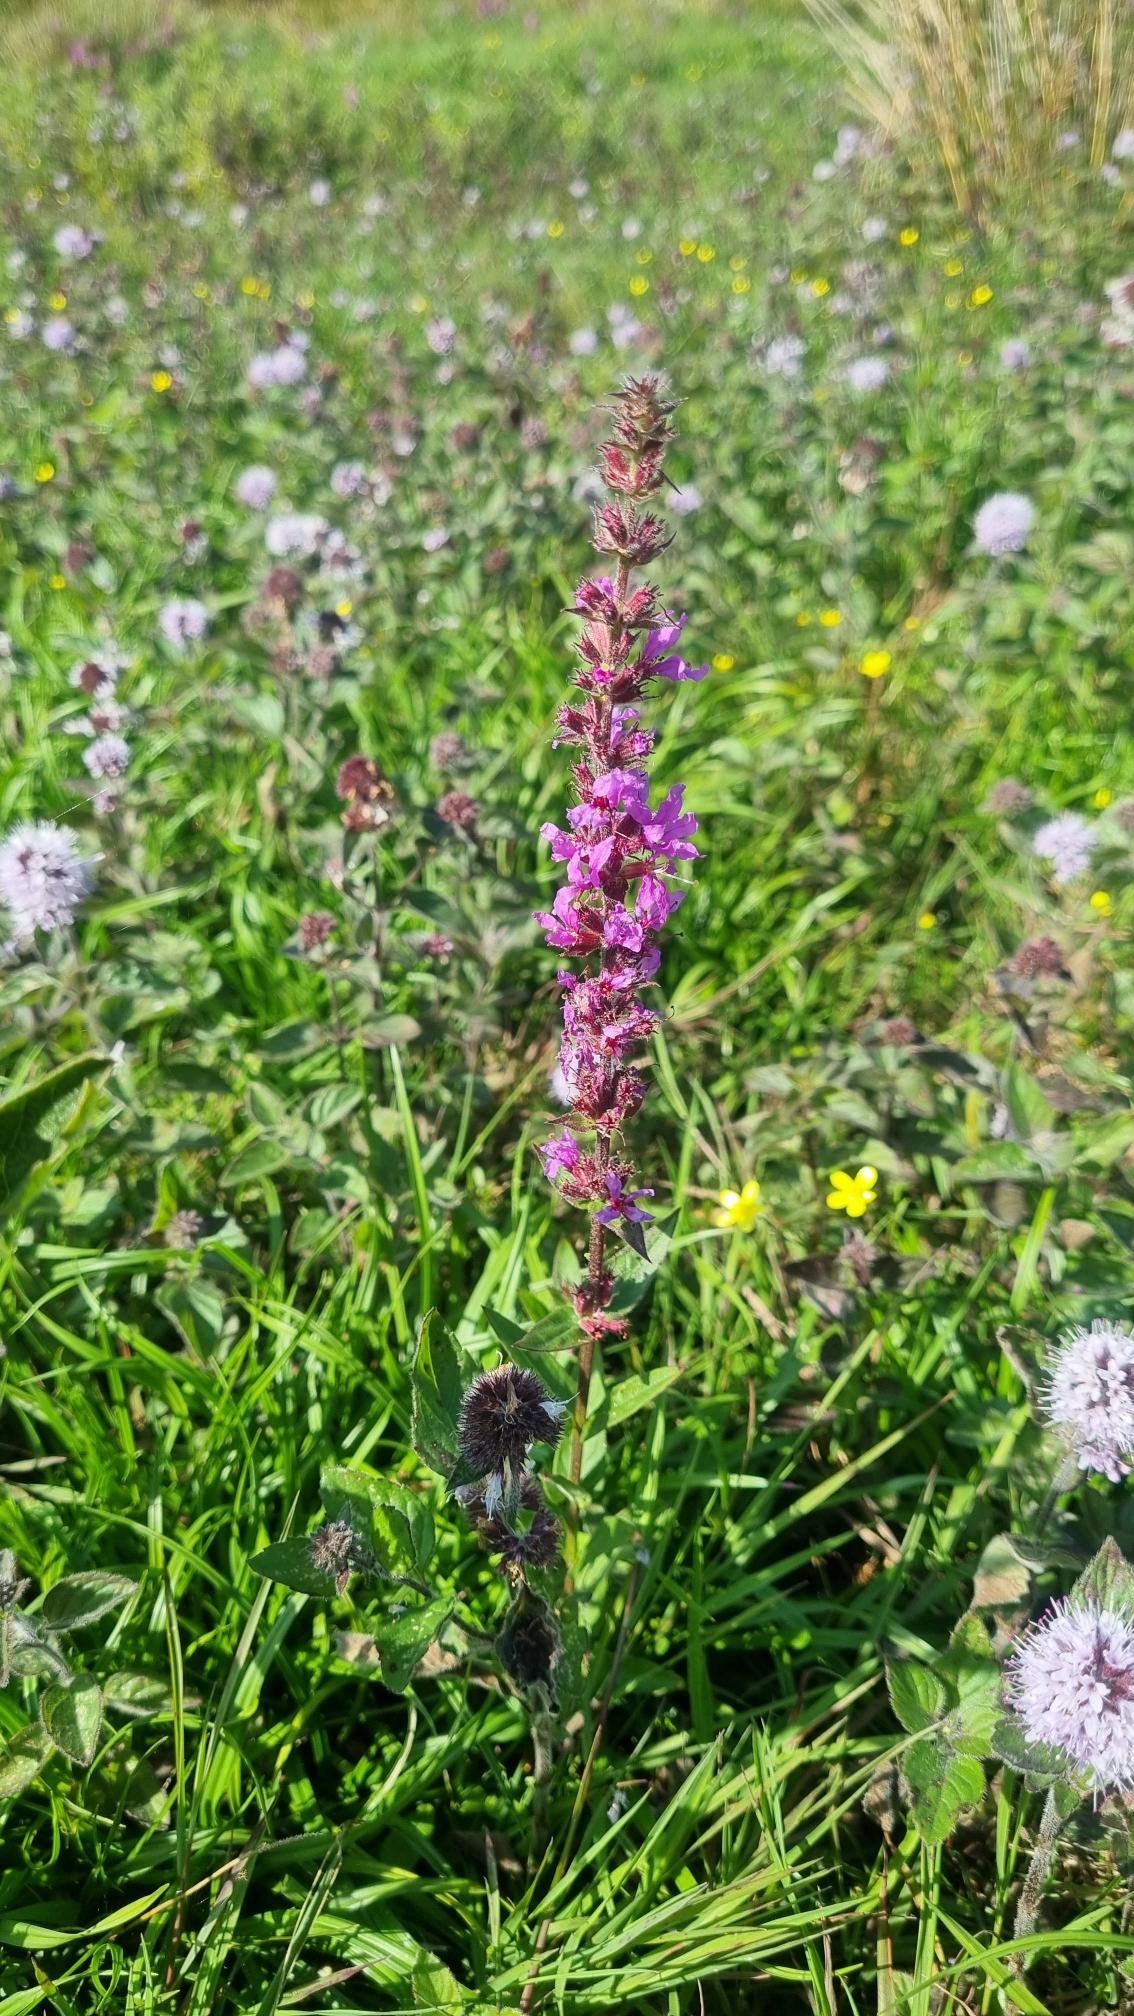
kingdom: Plantae
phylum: Tracheophyta
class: Magnoliopsida
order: Myrtales
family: Lythraceae
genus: Lythrum
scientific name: Lythrum salicaria
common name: Kattehale
